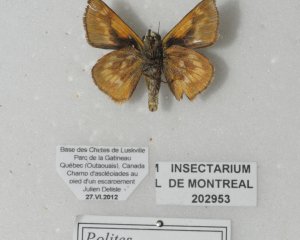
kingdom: Animalia
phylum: Arthropoda
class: Insecta
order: Lepidoptera
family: Hesperiidae
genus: Polites
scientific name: Polites
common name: Long Dash Skipper
